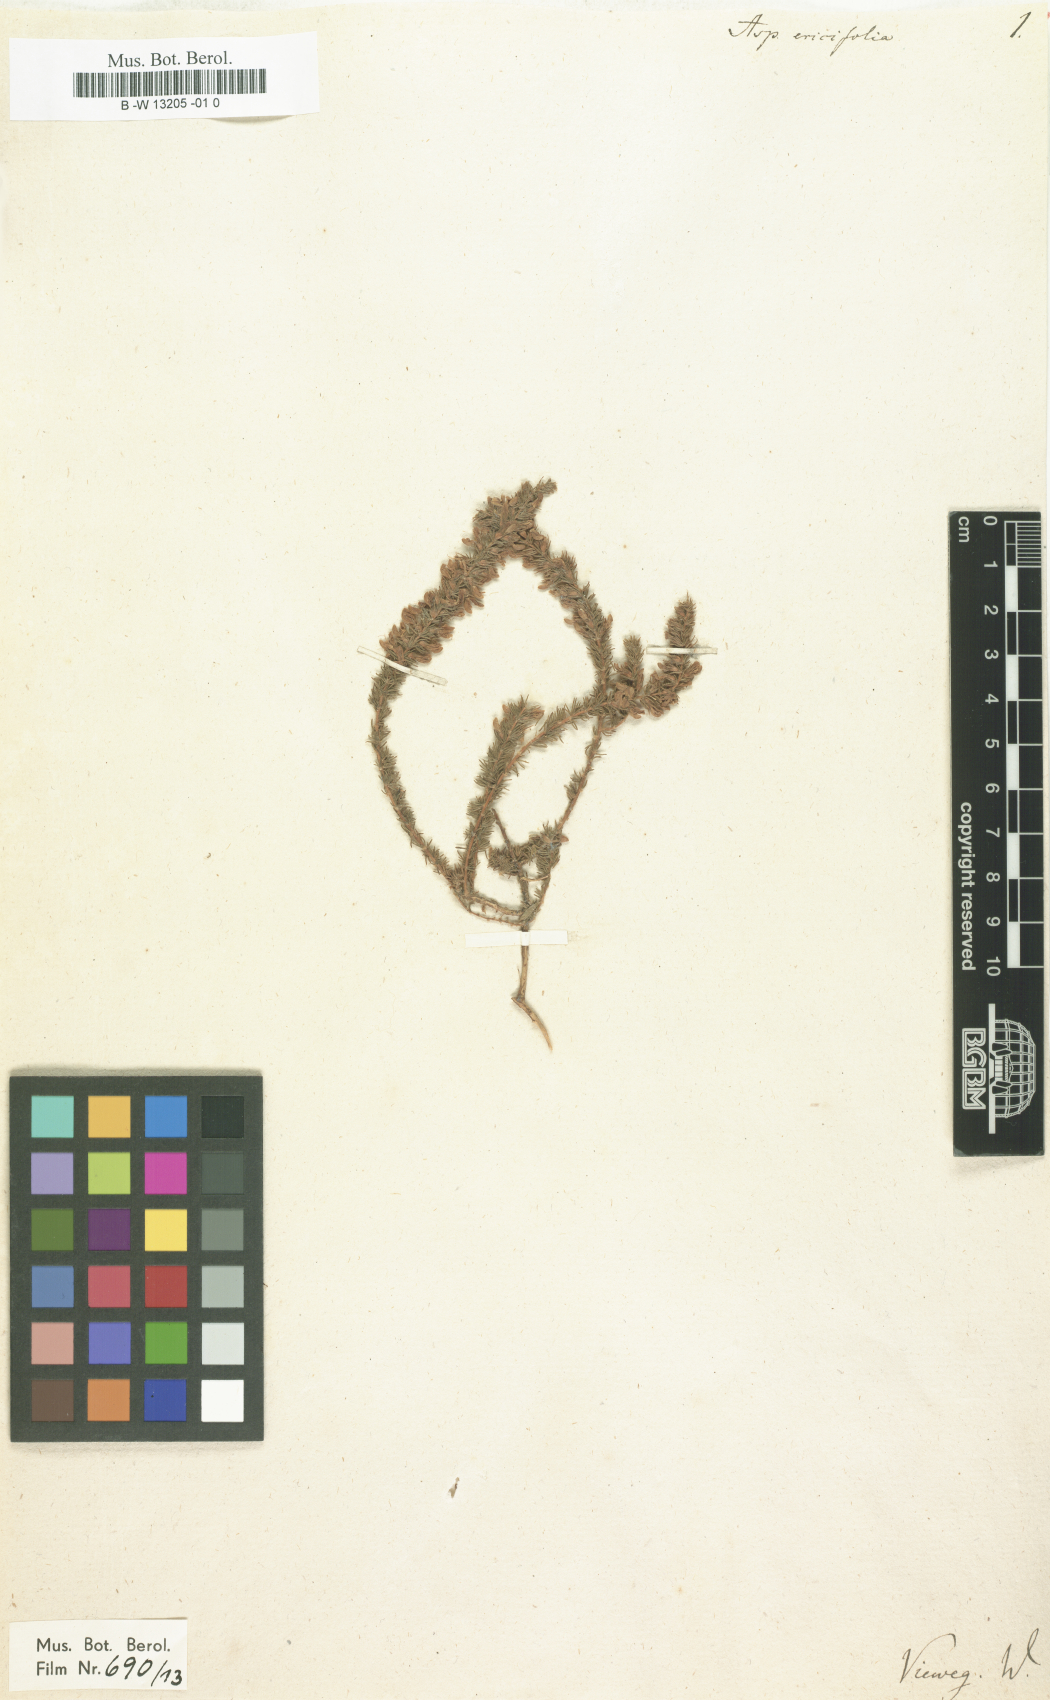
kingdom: Plantae
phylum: Tracheophyta
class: Magnoliopsida
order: Fabales
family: Fabaceae
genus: Aspalathus
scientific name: Aspalathus ericifolia
